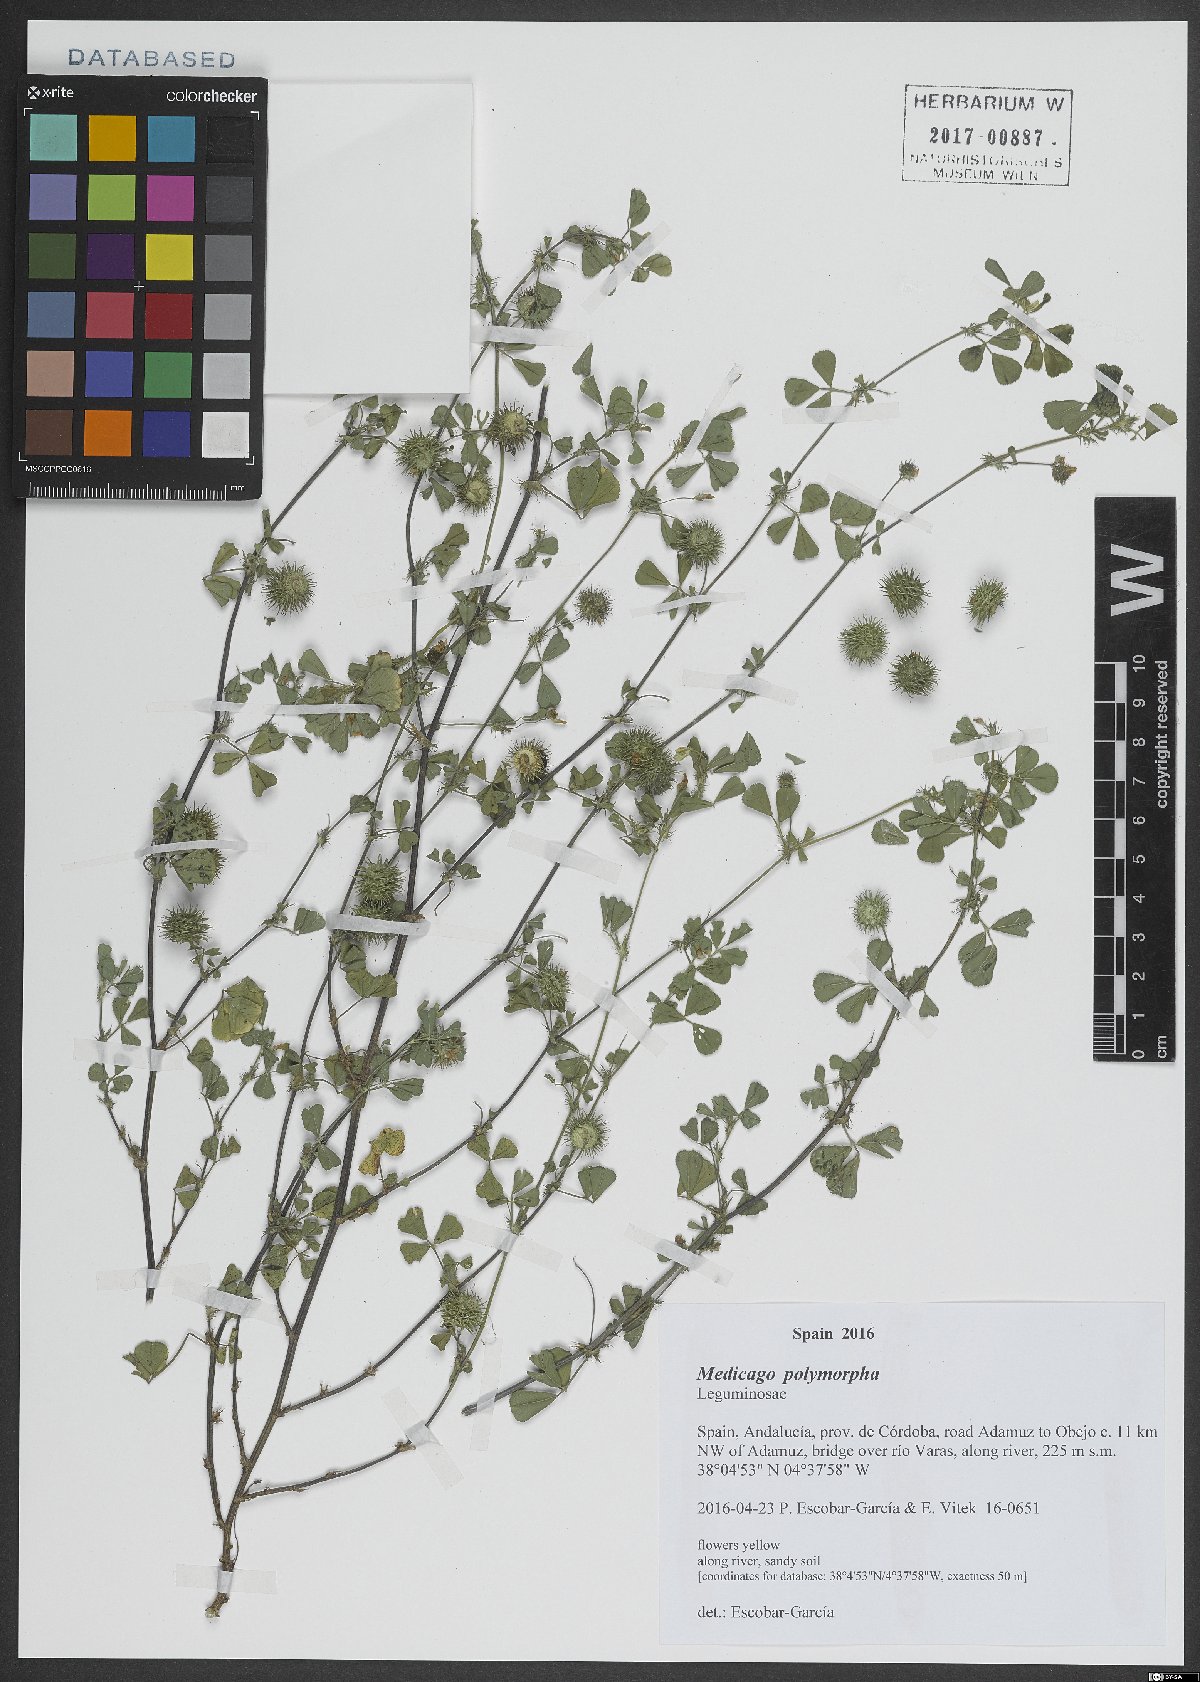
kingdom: Plantae
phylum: Tracheophyta
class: Magnoliopsida
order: Fabales
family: Fabaceae
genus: Medicago
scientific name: Medicago polymorpha
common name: Burclover
